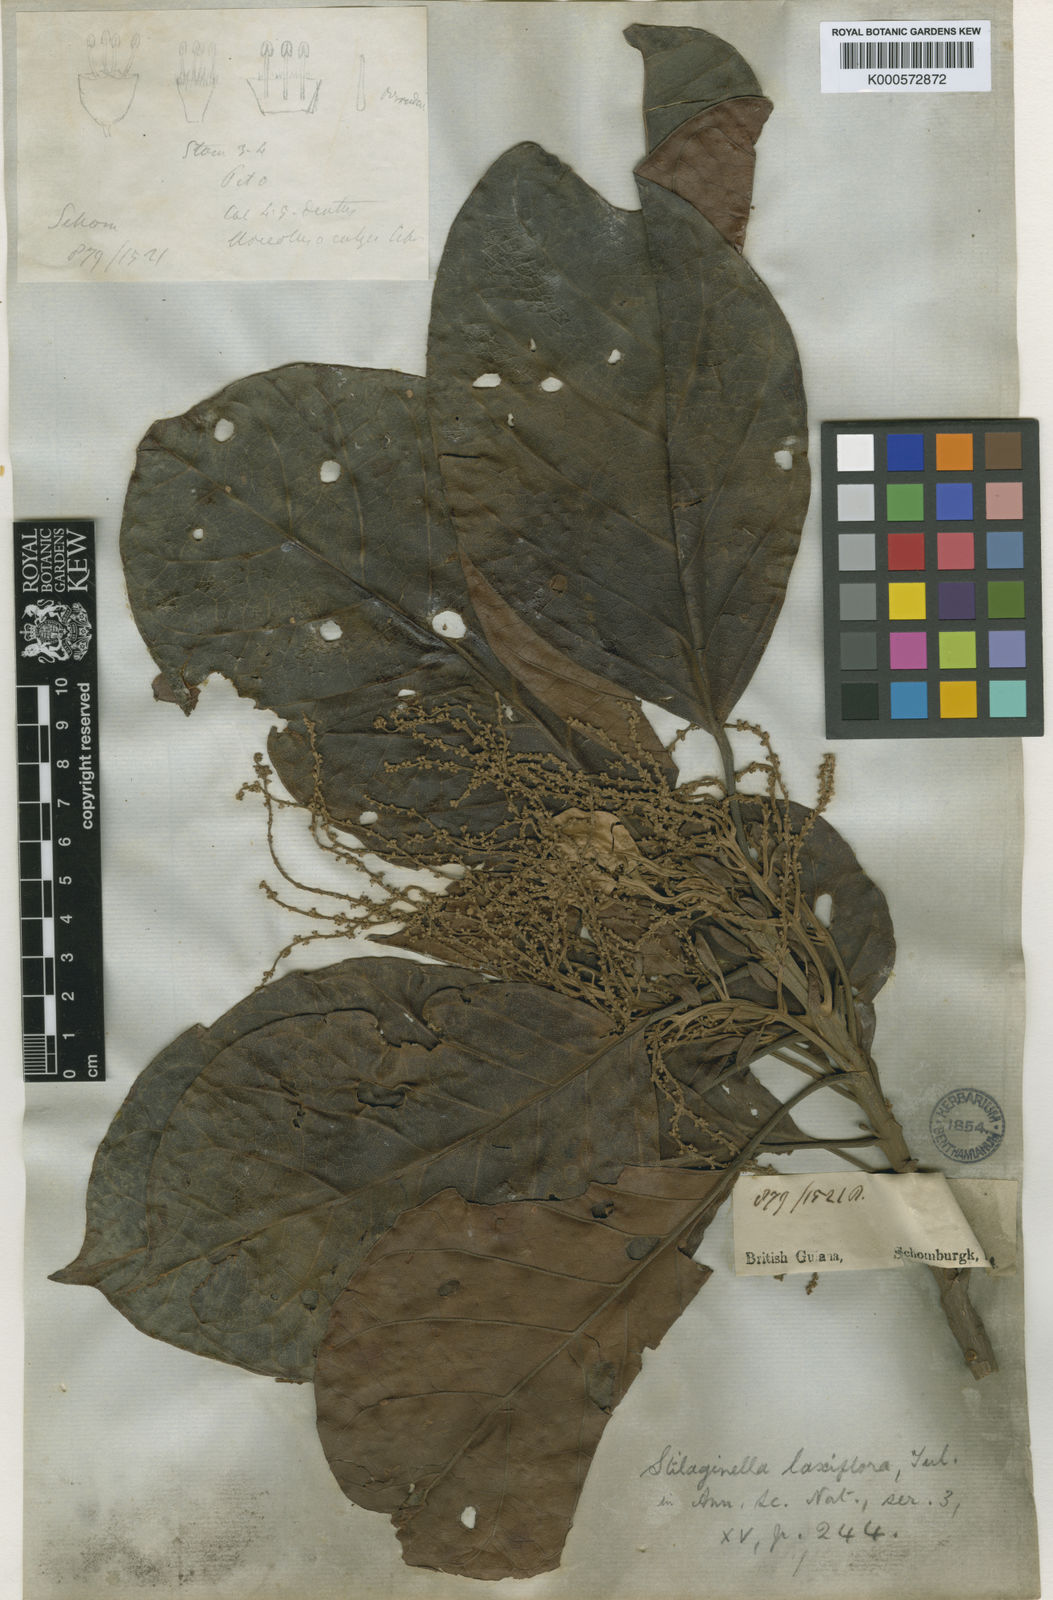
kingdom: Plantae
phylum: Tracheophyta
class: Magnoliopsida
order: Malpighiales
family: Phyllanthaceae
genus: Hieronyma
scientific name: Hieronyma
